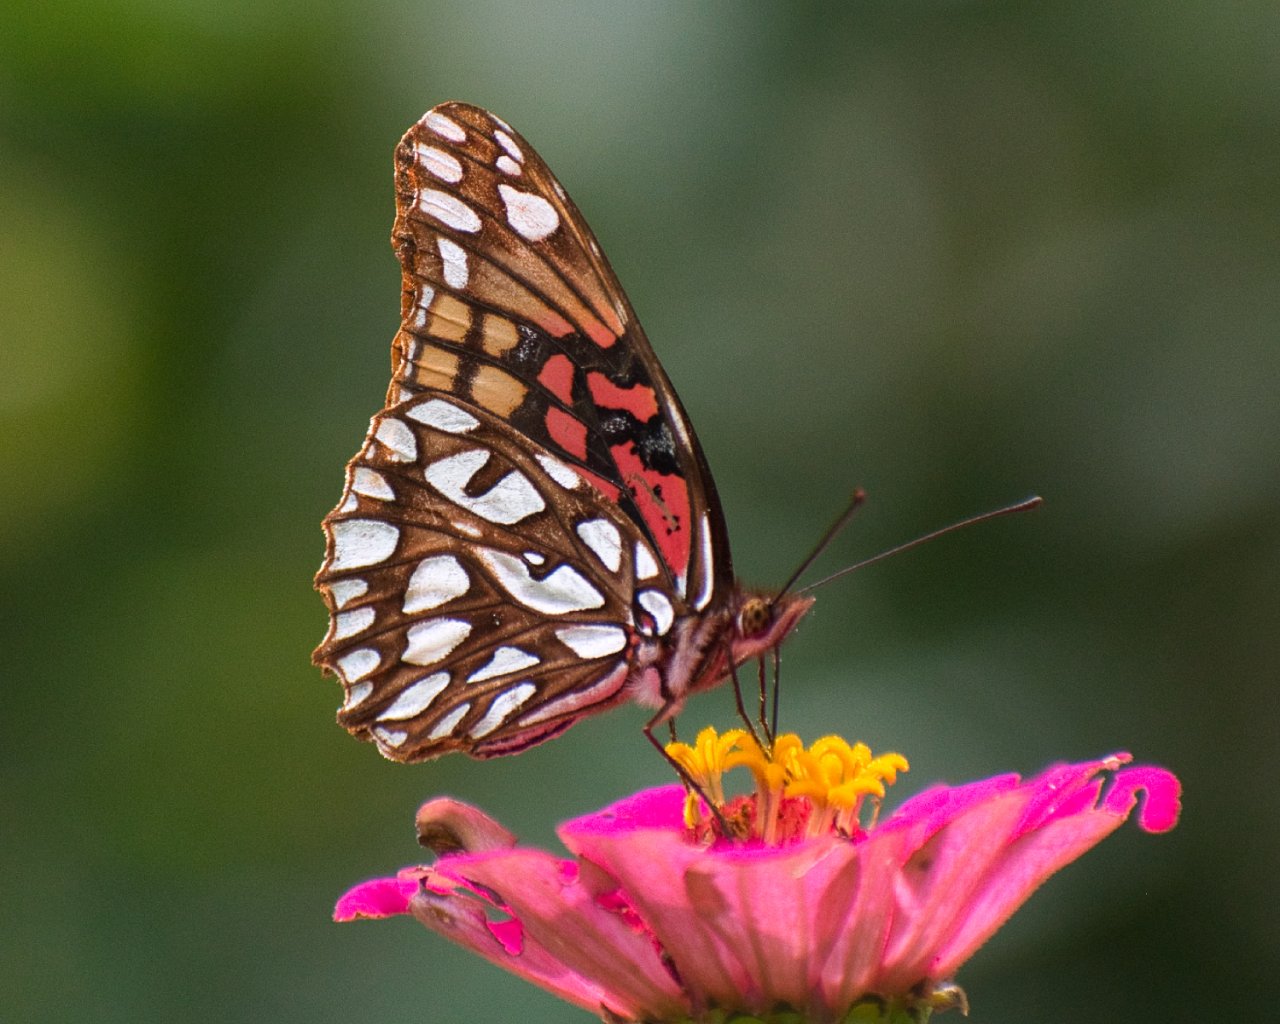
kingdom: Animalia
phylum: Arthropoda
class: Insecta
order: Lepidoptera
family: Nymphalidae
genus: Dione
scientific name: Dione moneta
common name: Mexican Silverspot
